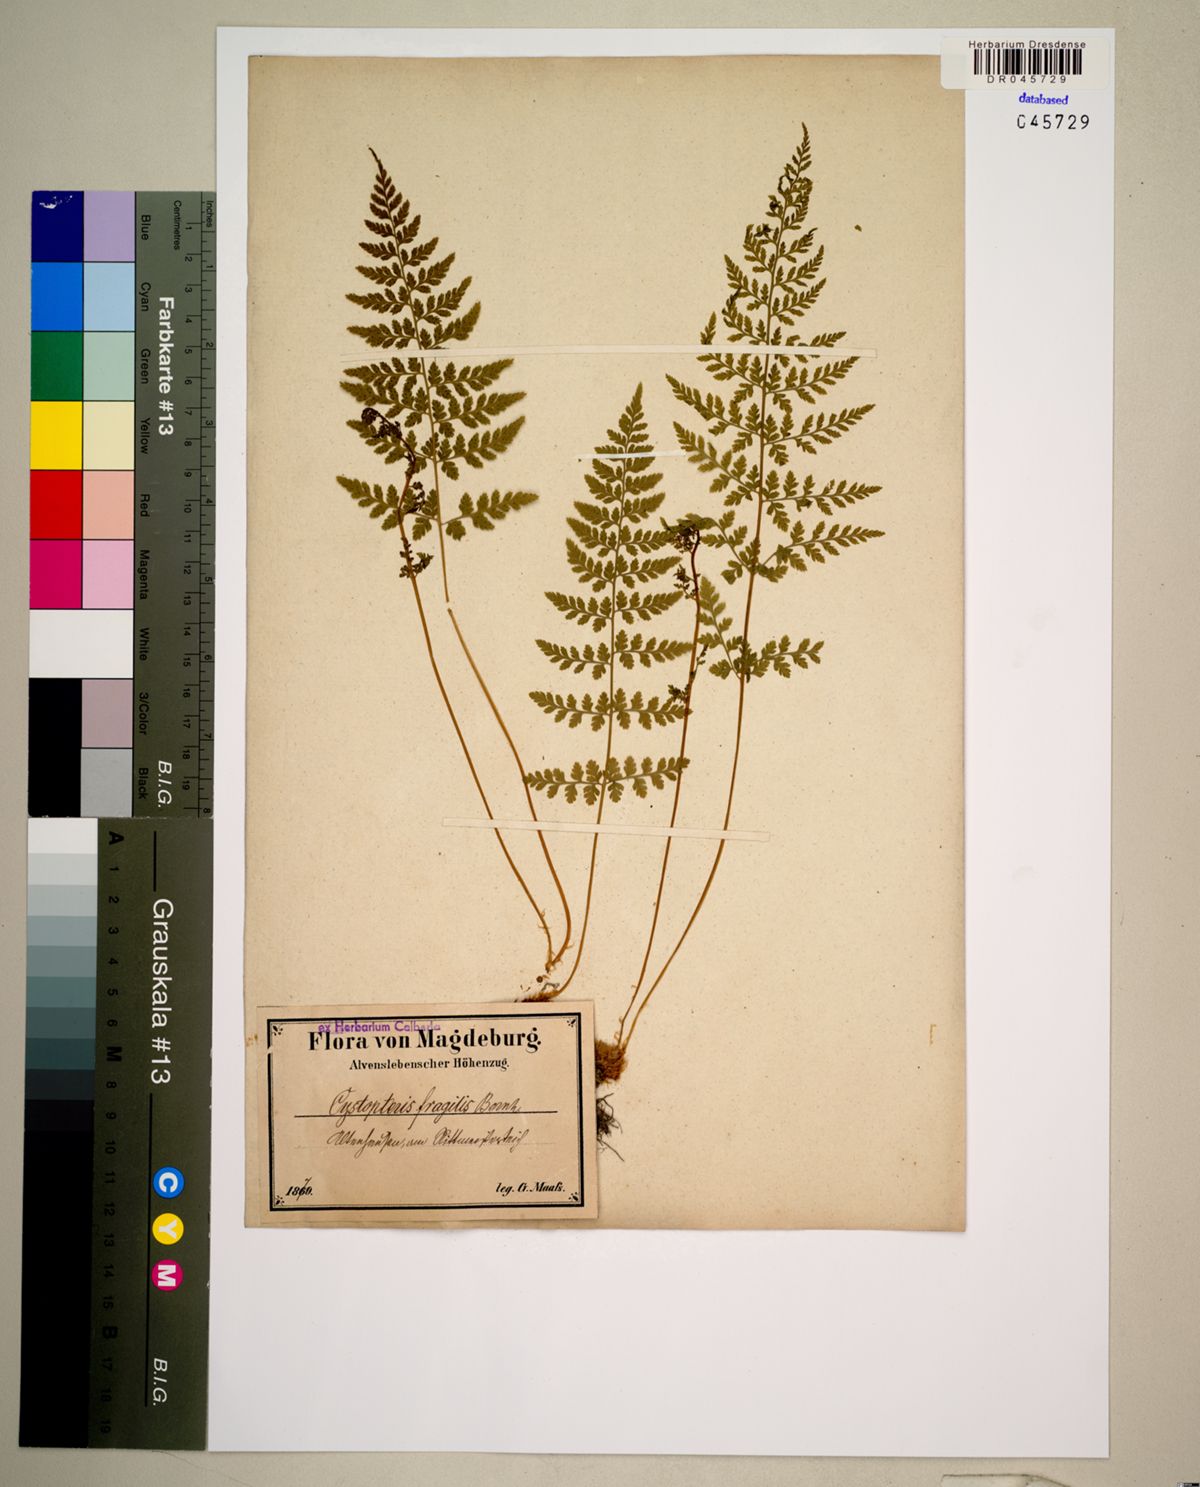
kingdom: Plantae
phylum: Tracheophyta
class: Polypodiopsida
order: Polypodiales
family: Cystopteridaceae
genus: Cystopteris
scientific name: Cystopteris fragilis
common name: Brittle bladder fern
